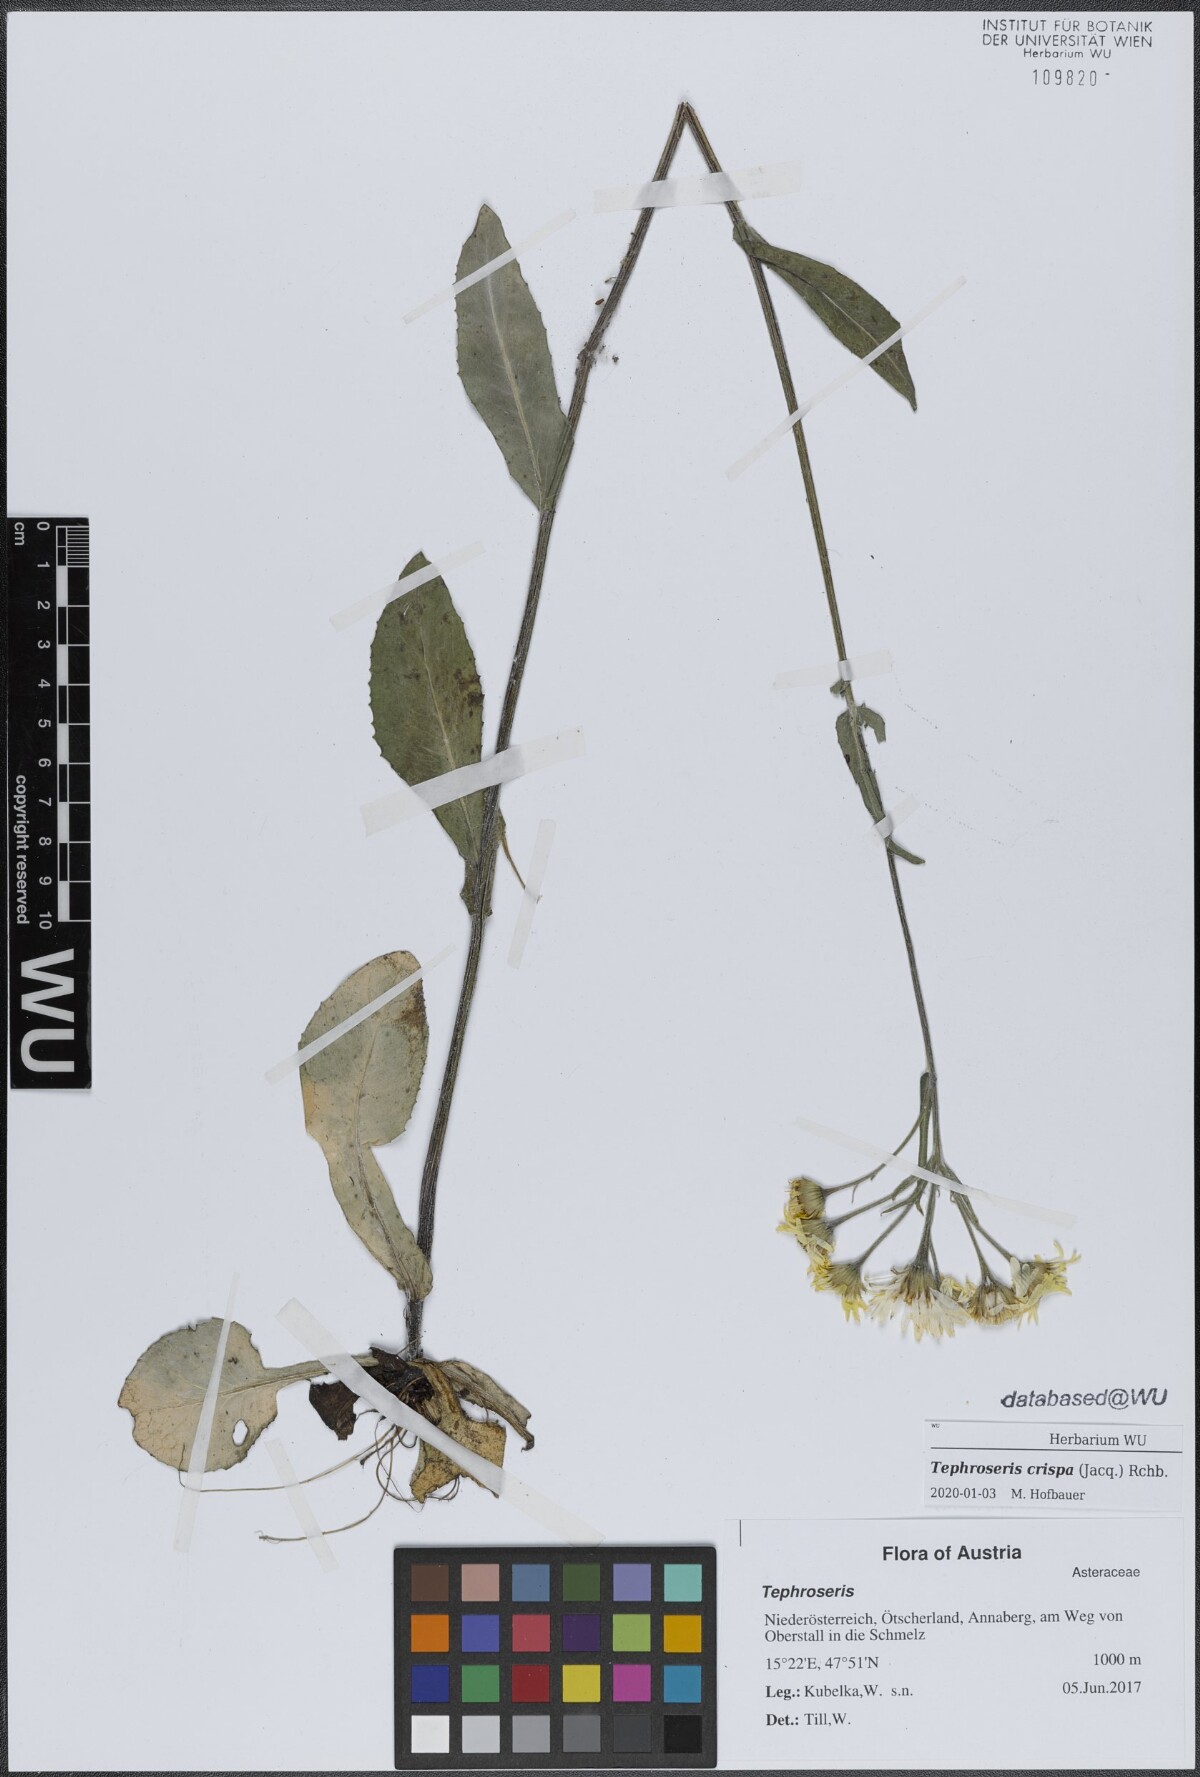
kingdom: Plantae
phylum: Tracheophyta
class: Magnoliopsida
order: Asterales
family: Asteraceae
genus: Tephroseris
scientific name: Tephroseris crispa
